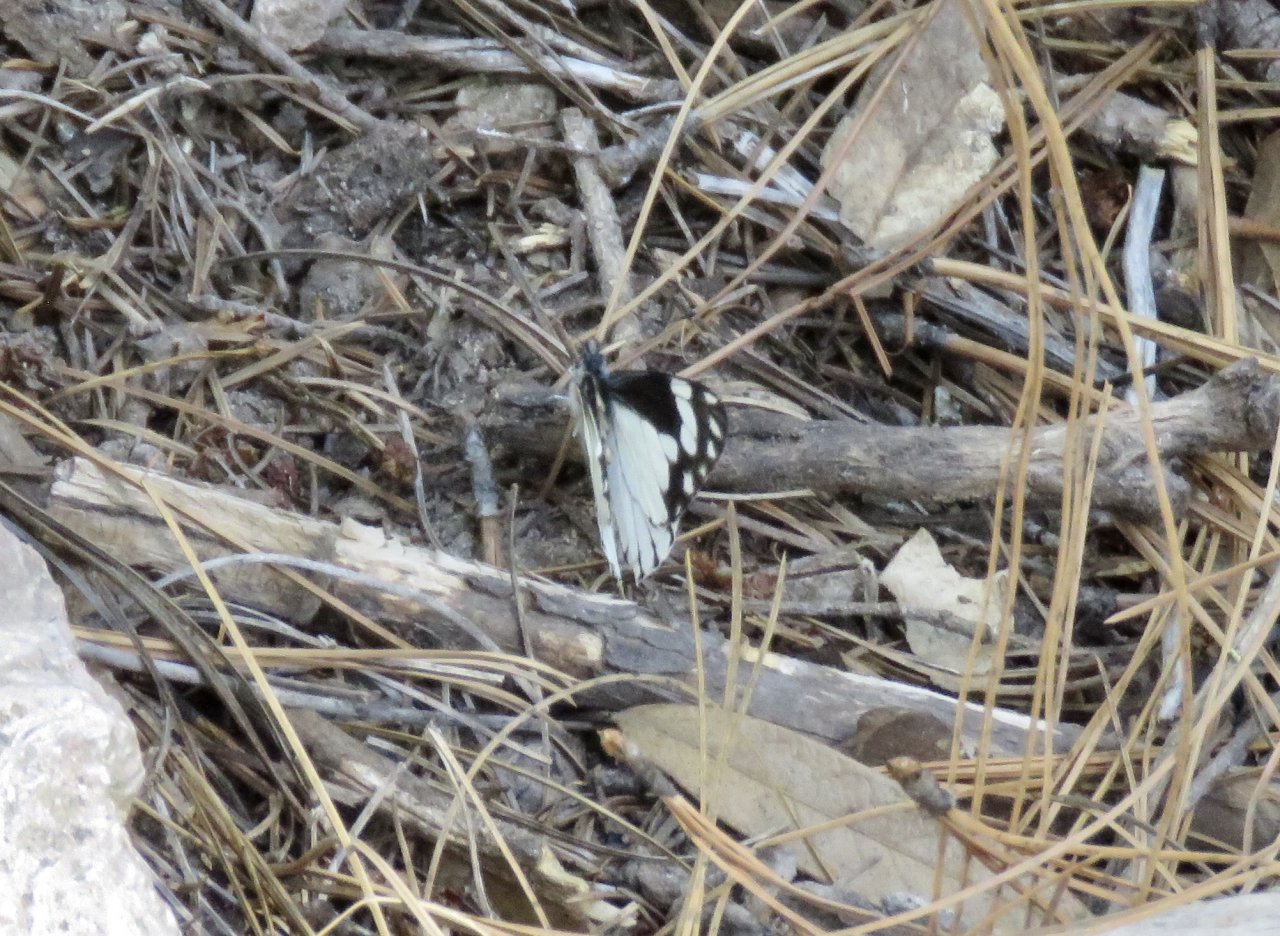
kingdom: Animalia
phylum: Arthropoda
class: Insecta
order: Lepidoptera
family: Pieridae
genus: Neophasia
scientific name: Neophasia terlooii
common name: Chiricahua White
